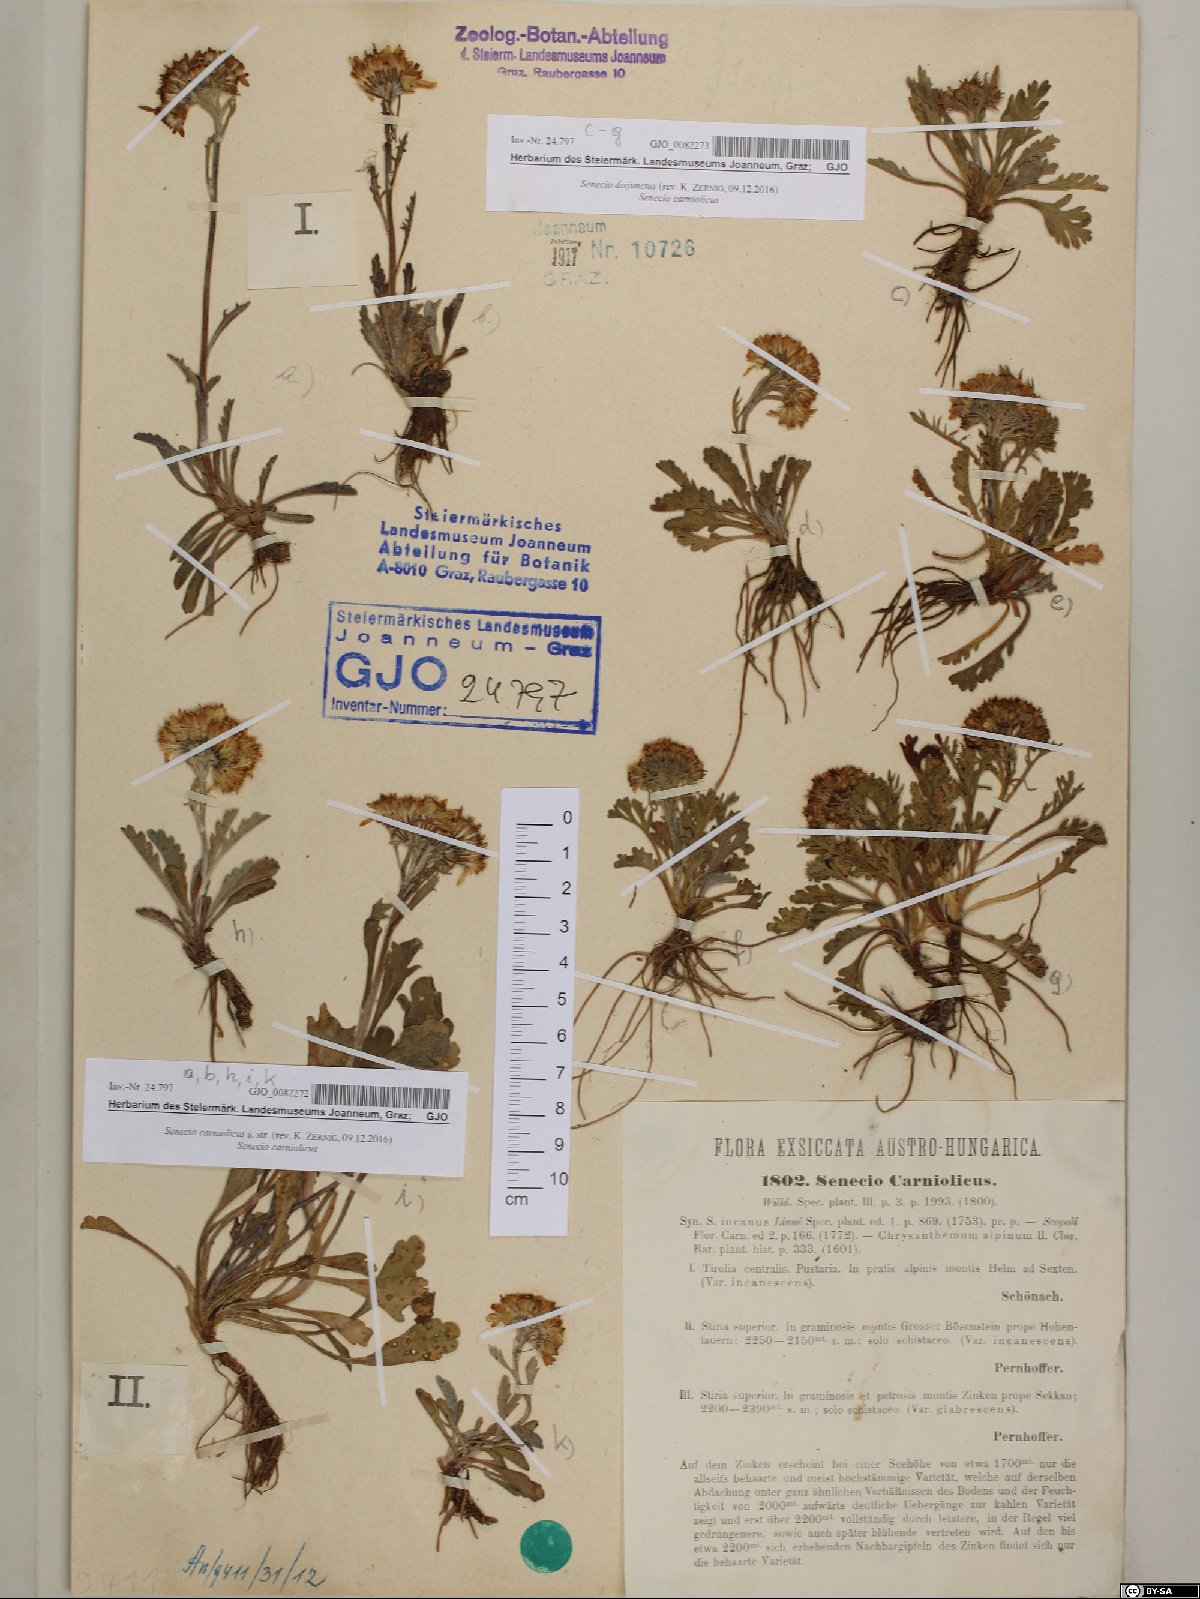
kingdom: Plantae
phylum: Tracheophyta
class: Magnoliopsida
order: Asterales
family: Asteraceae
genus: Jacobaea
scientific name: Jacobaea disjuncta
